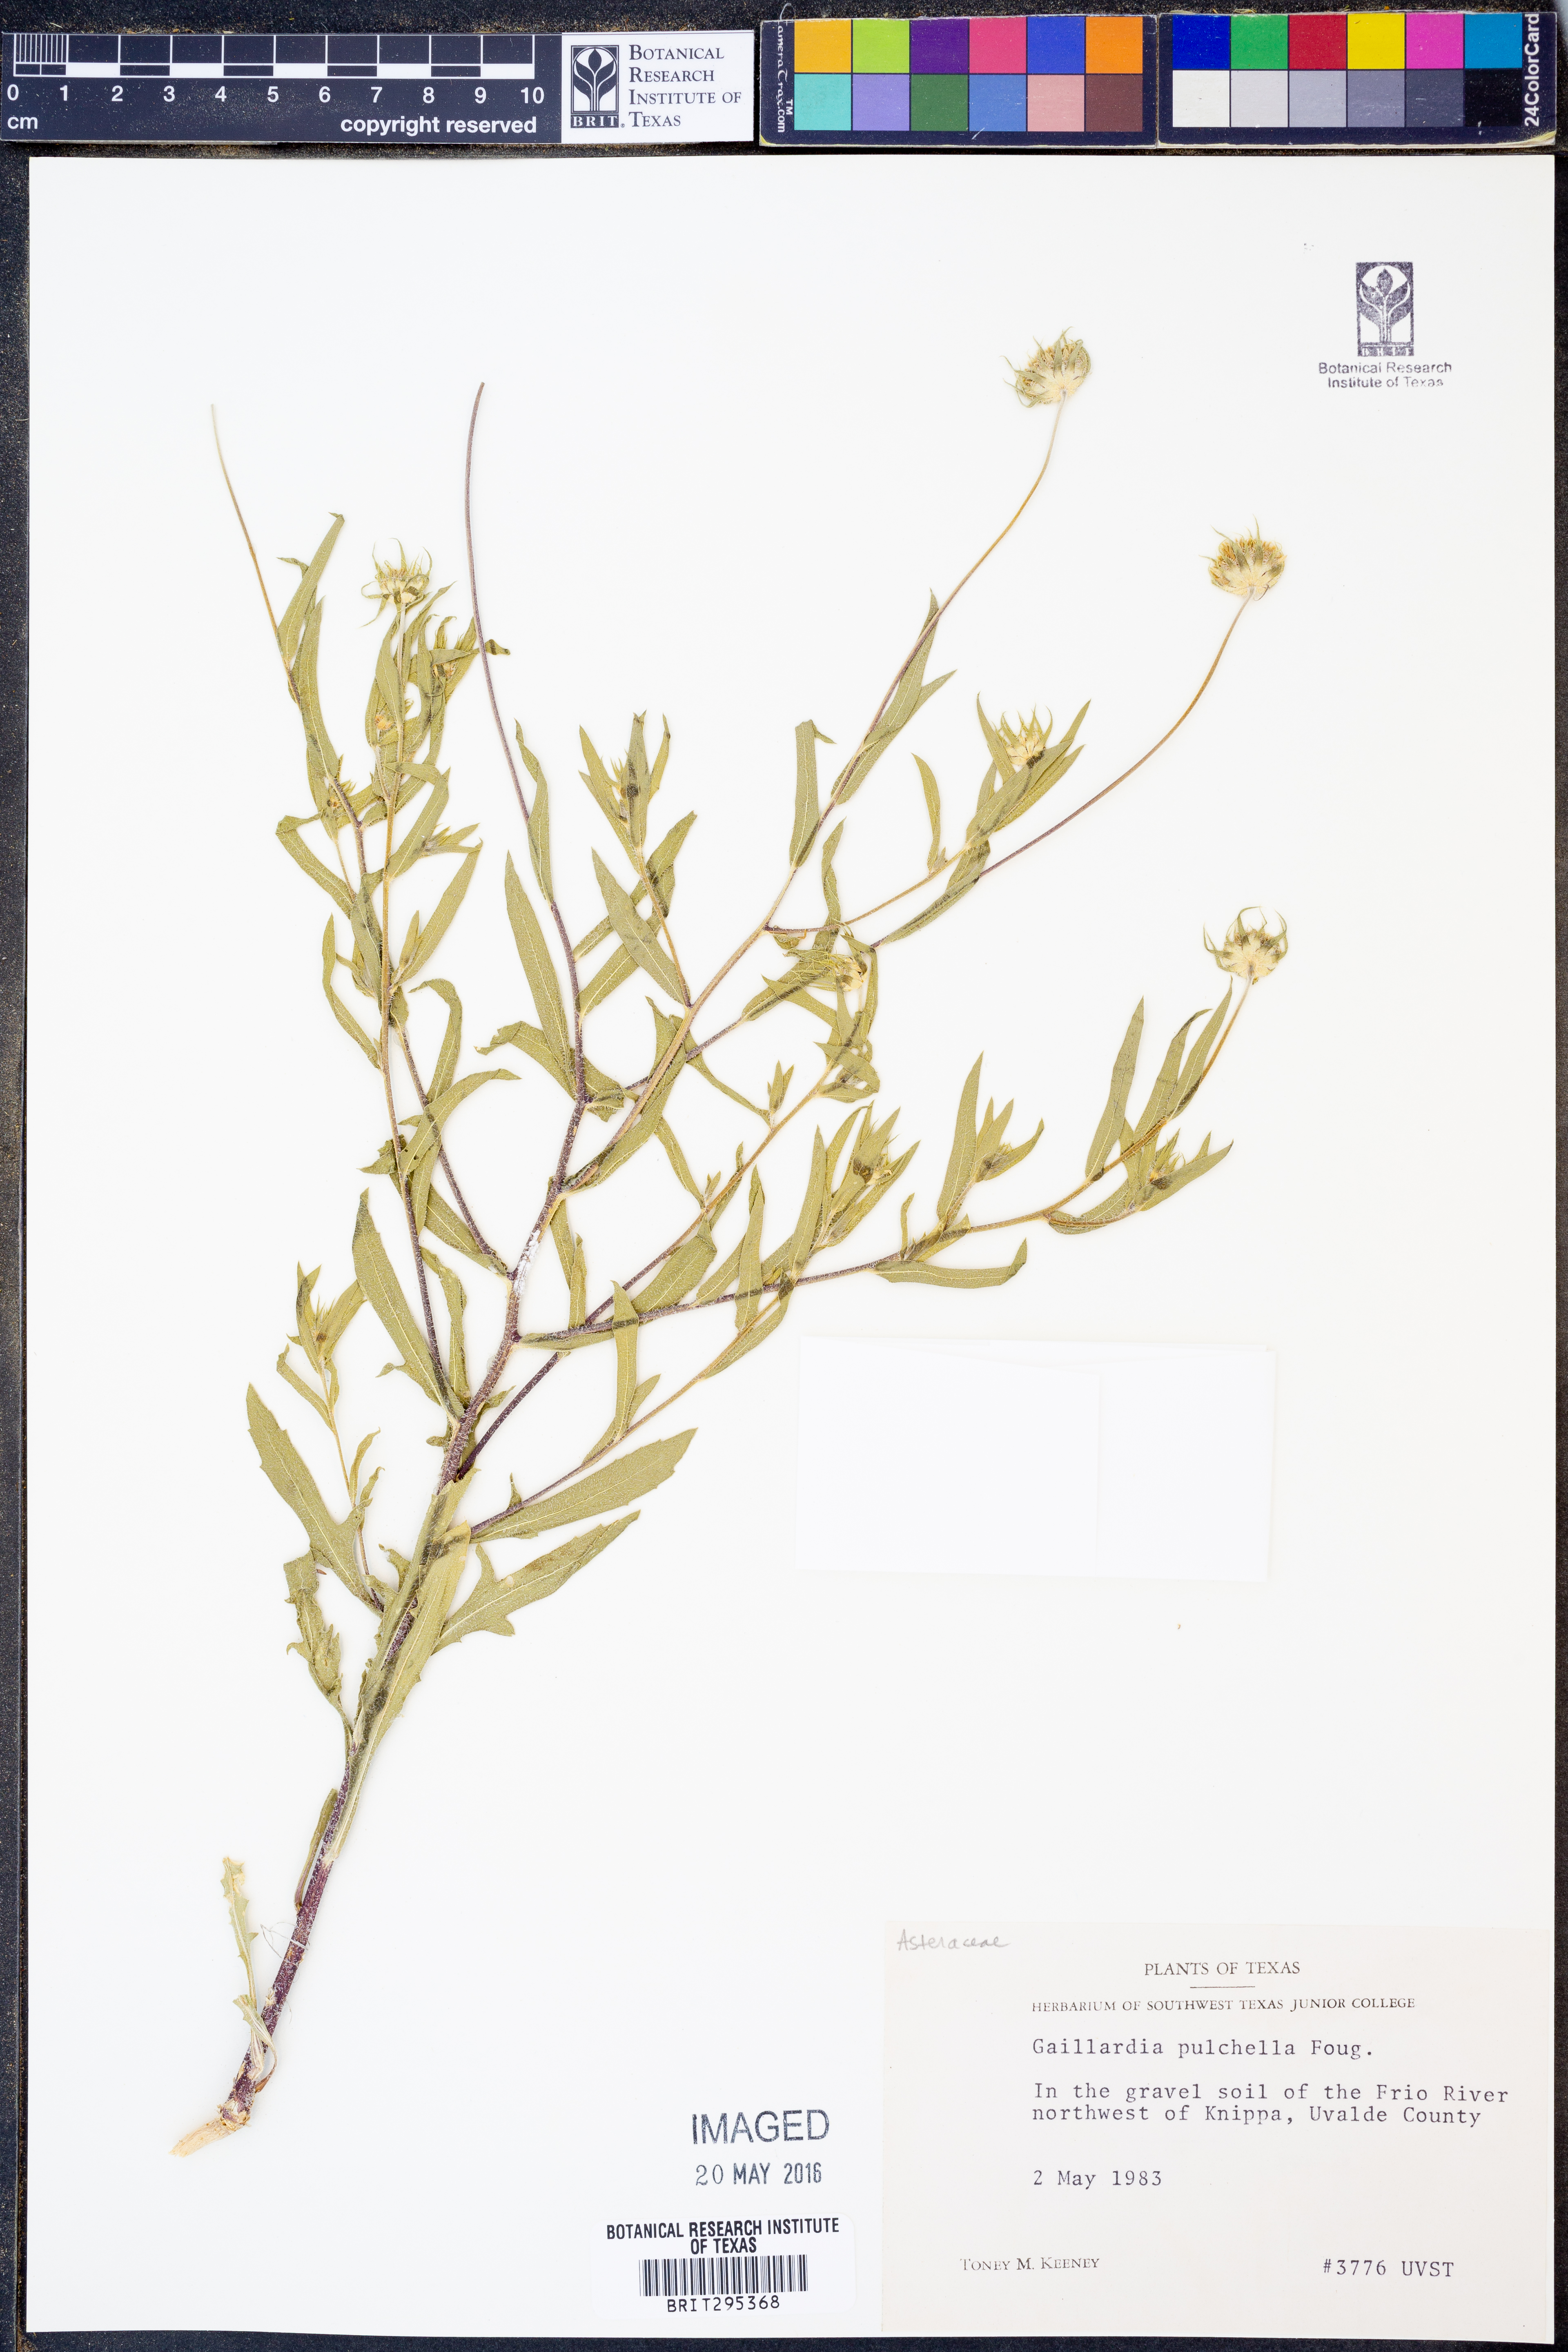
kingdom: Plantae
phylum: Tracheophyta
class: Magnoliopsida
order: Asterales
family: Asteraceae
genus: Gaillardia
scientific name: Gaillardia pulchella
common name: Firewheel
